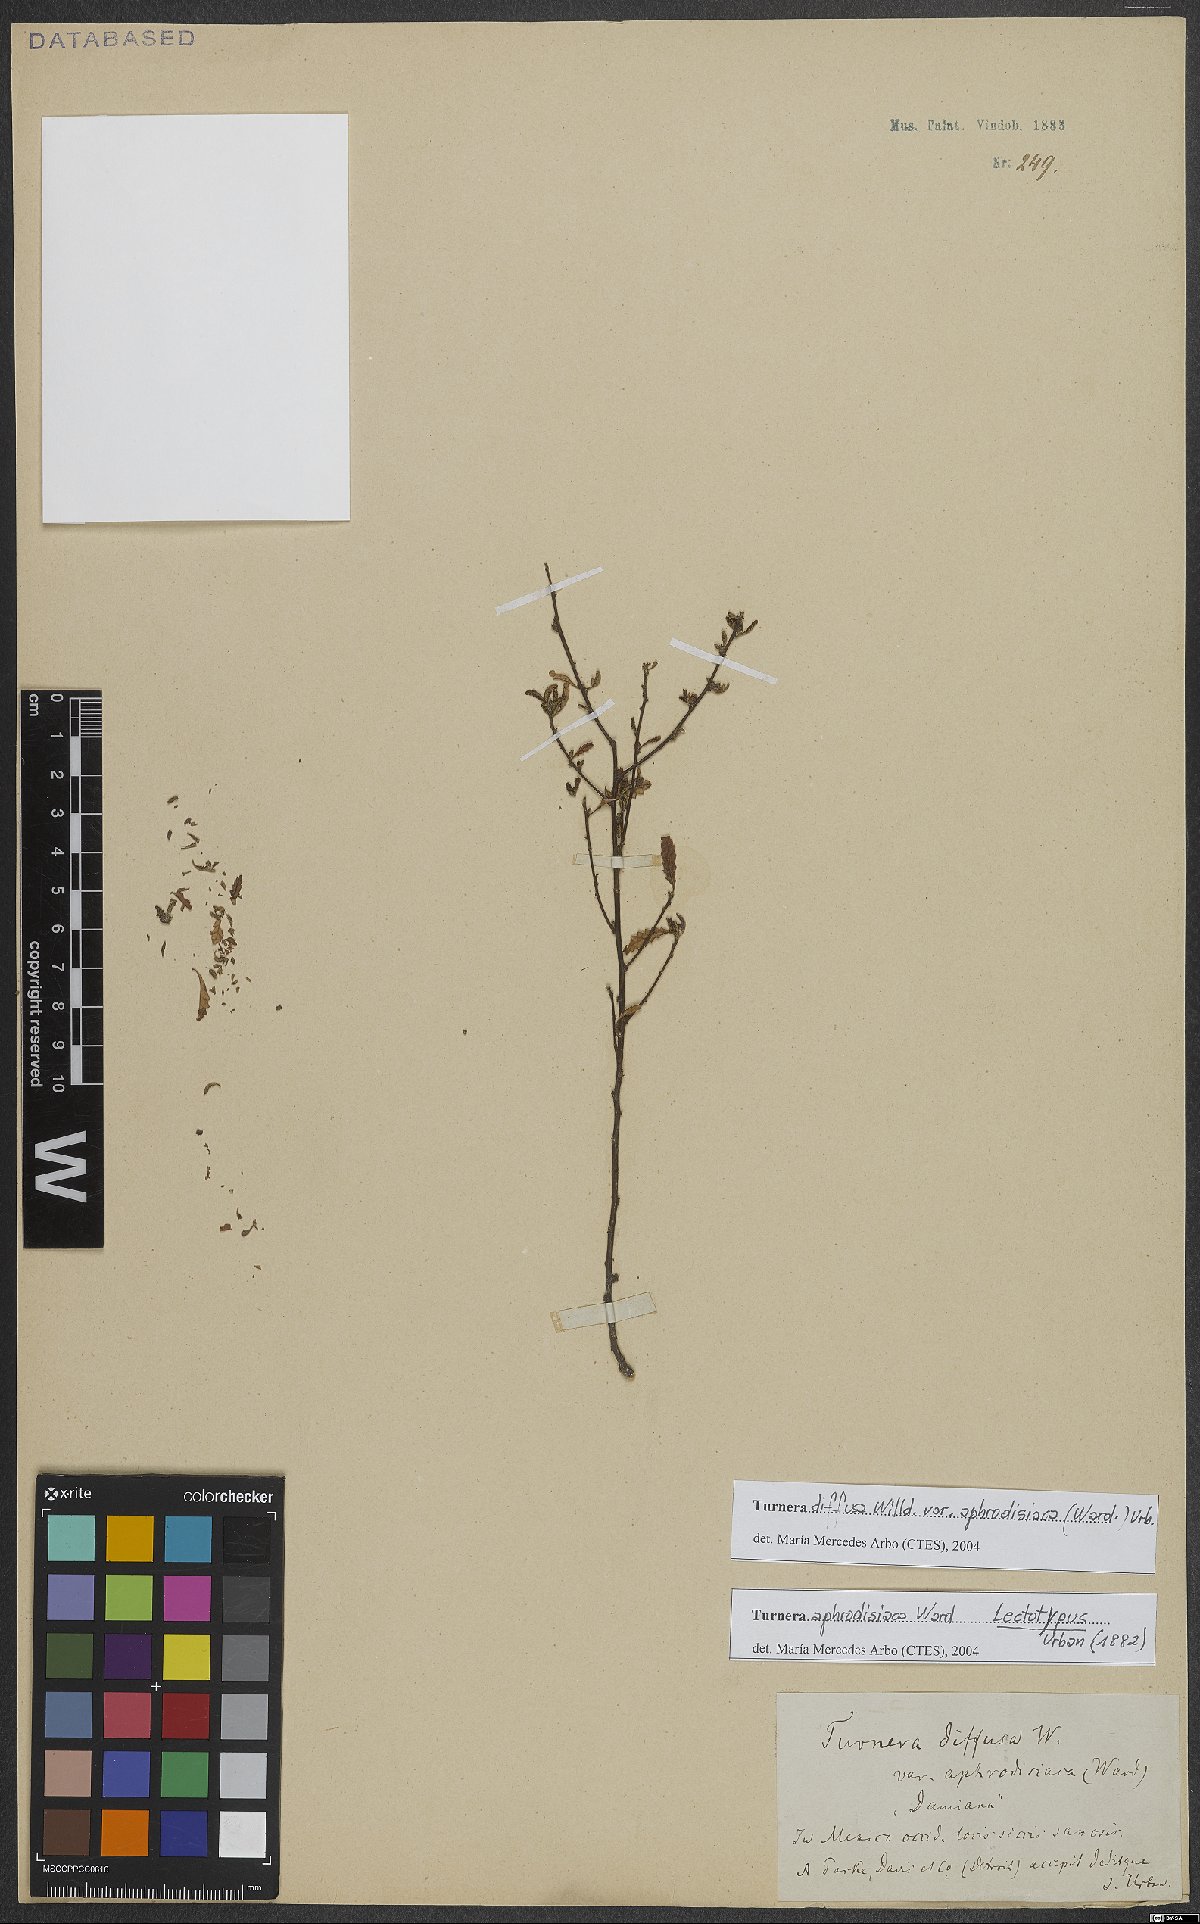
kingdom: Plantae
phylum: Tracheophyta
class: Magnoliopsida
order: Malpighiales
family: Turneraceae
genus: Turnera
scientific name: Turnera diffusa
